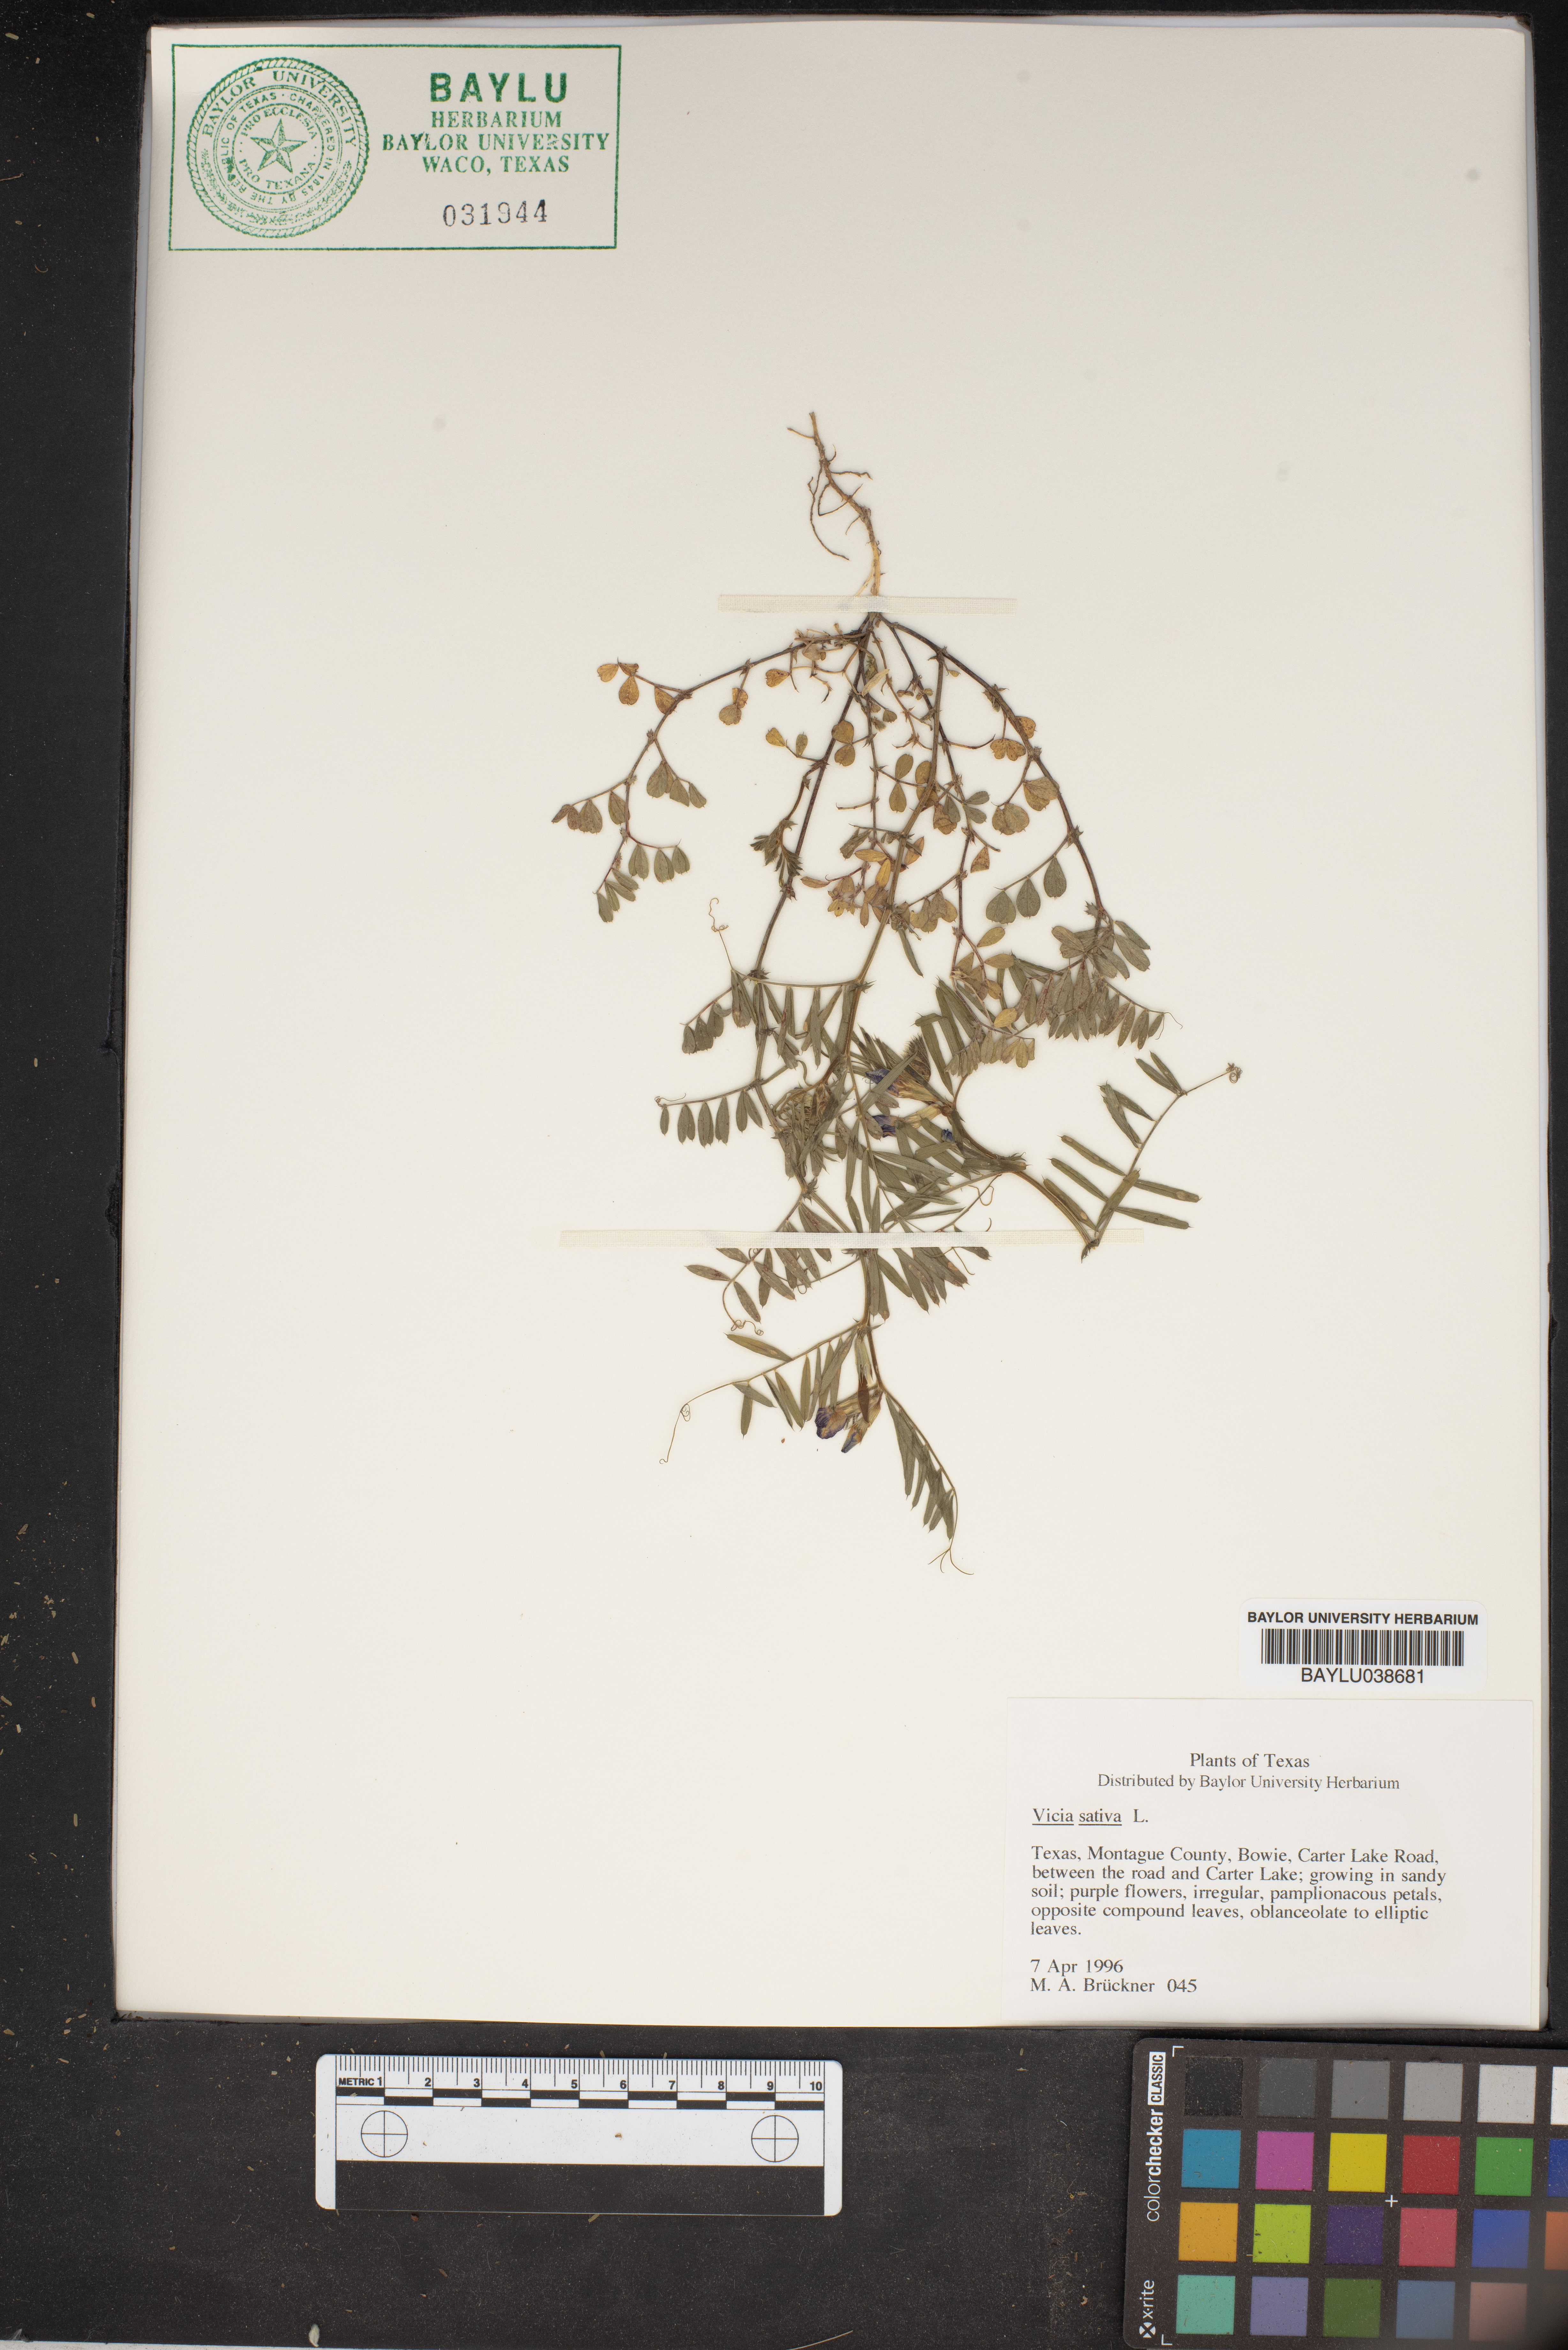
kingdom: Plantae
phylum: Tracheophyta
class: Magnoliopsida
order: Fabales
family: Fabaceae
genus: Vicia
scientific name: Vicia sativa
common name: Garden vetch
